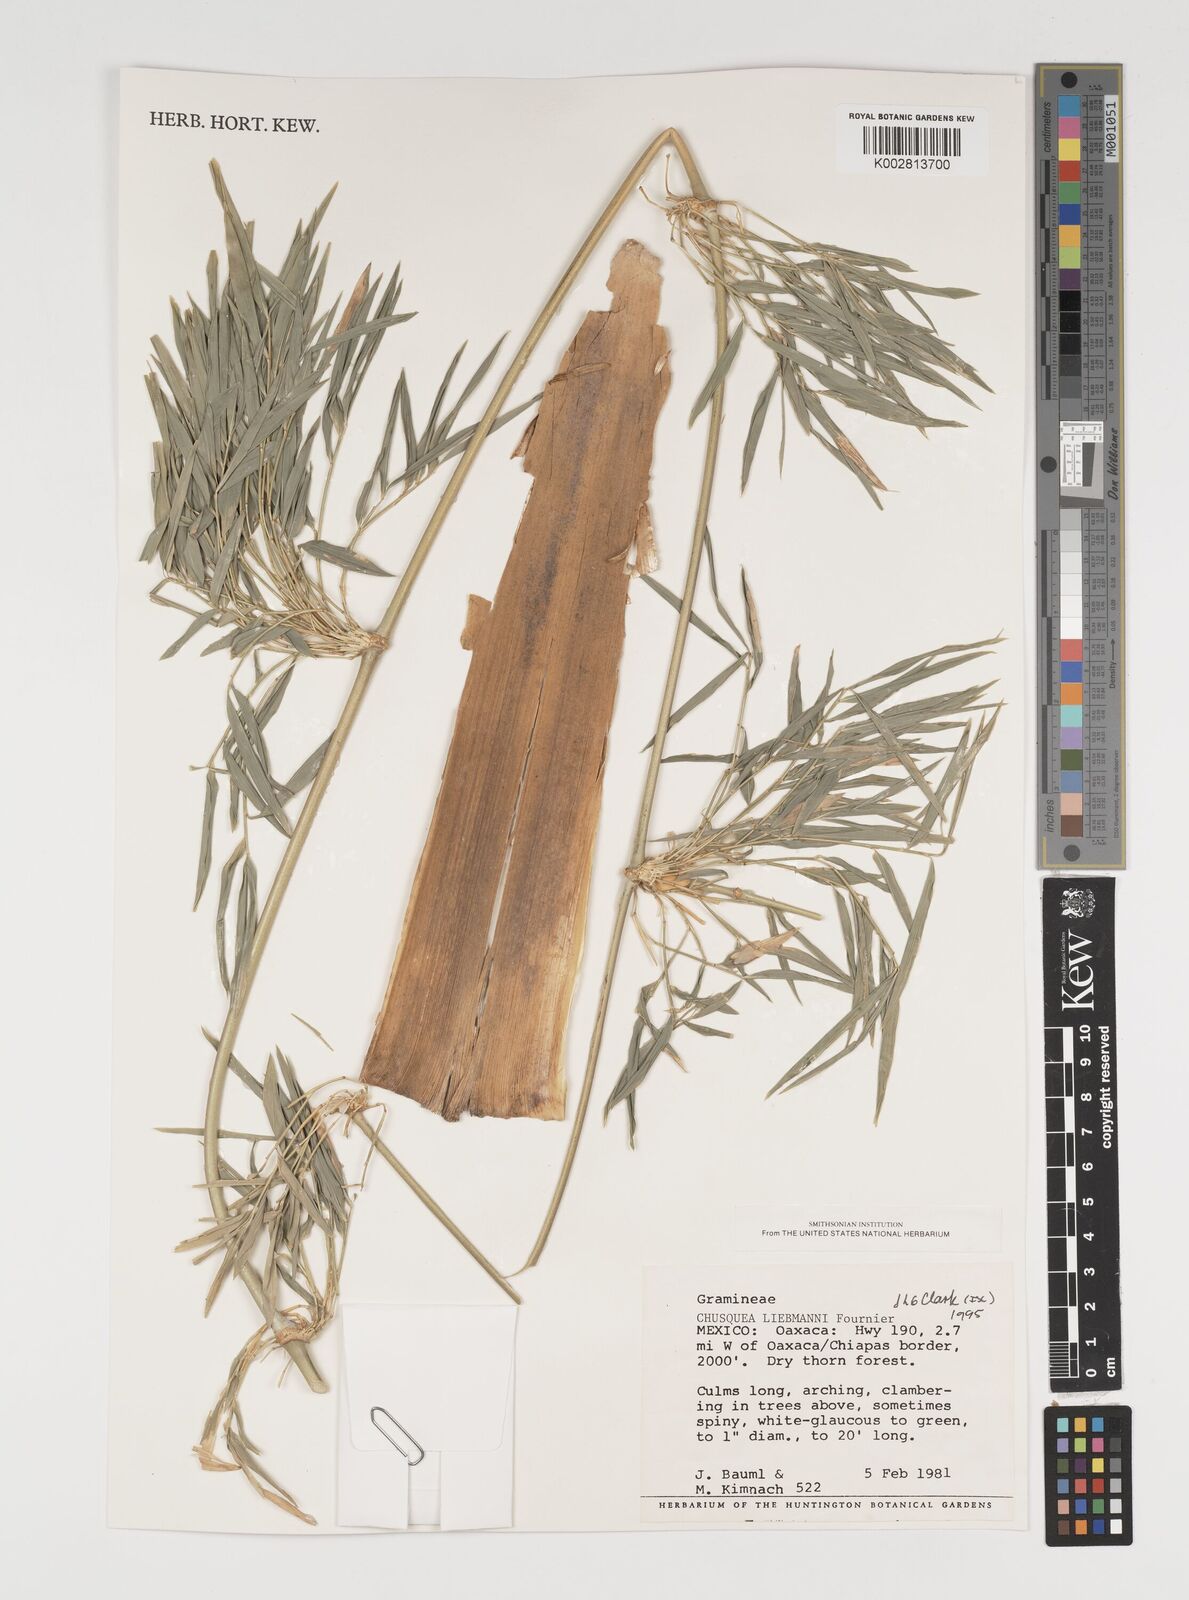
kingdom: Plantae
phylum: Tracheophyta
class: Liliopsida
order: Poales
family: Poaceae
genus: Chusquea
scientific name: Chusquea liebmannii
